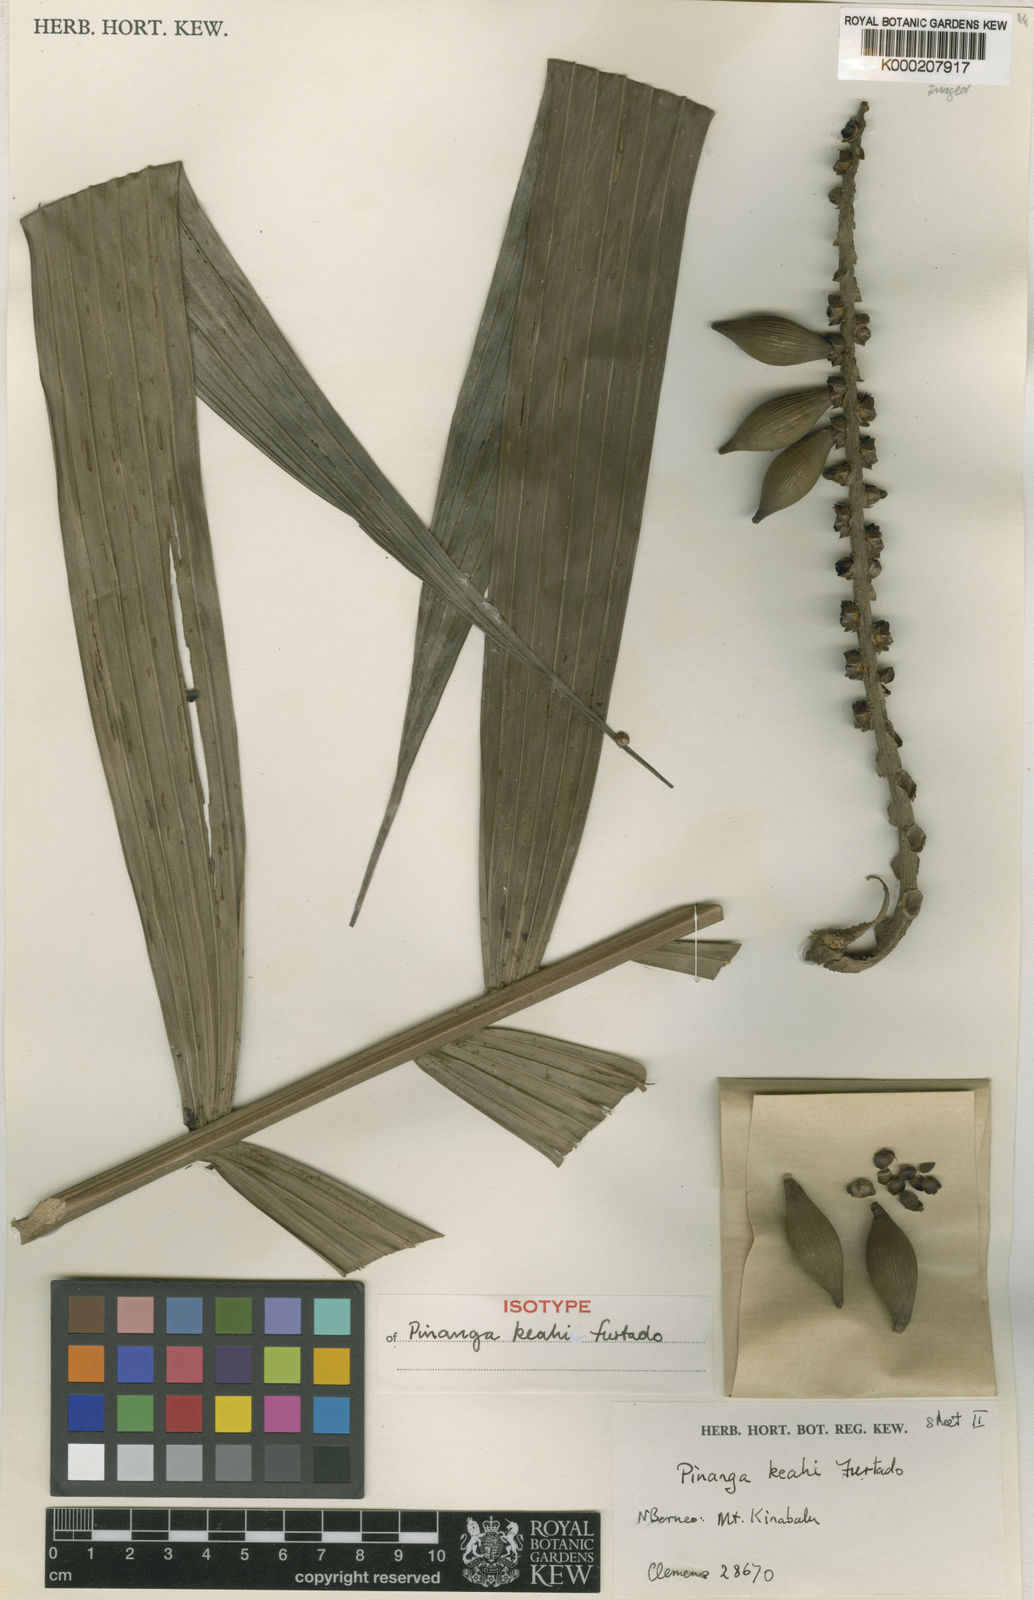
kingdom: Plantae
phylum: Tracheophyta
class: Liliopsida
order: Arecales
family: Arecaceae
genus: Pinanga
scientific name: Pinanga keahii
